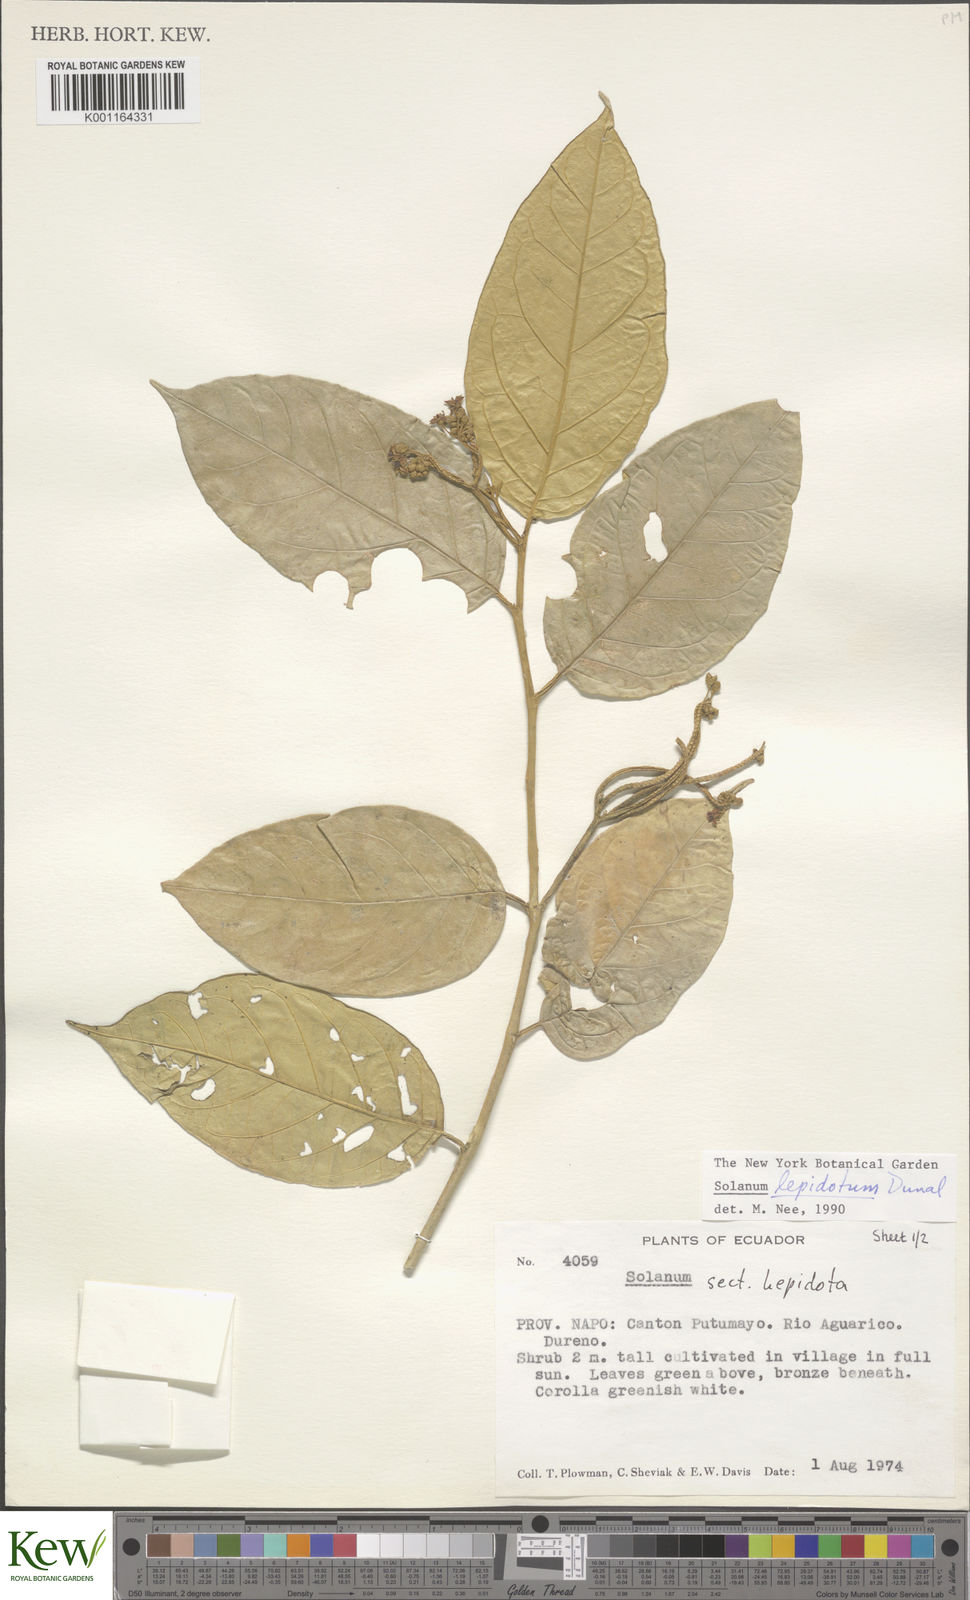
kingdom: Plantae
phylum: Tracheophyta
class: Magnoliopsida
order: Solanales
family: Solanaceae
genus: Solanum
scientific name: Solanum lepidotum
